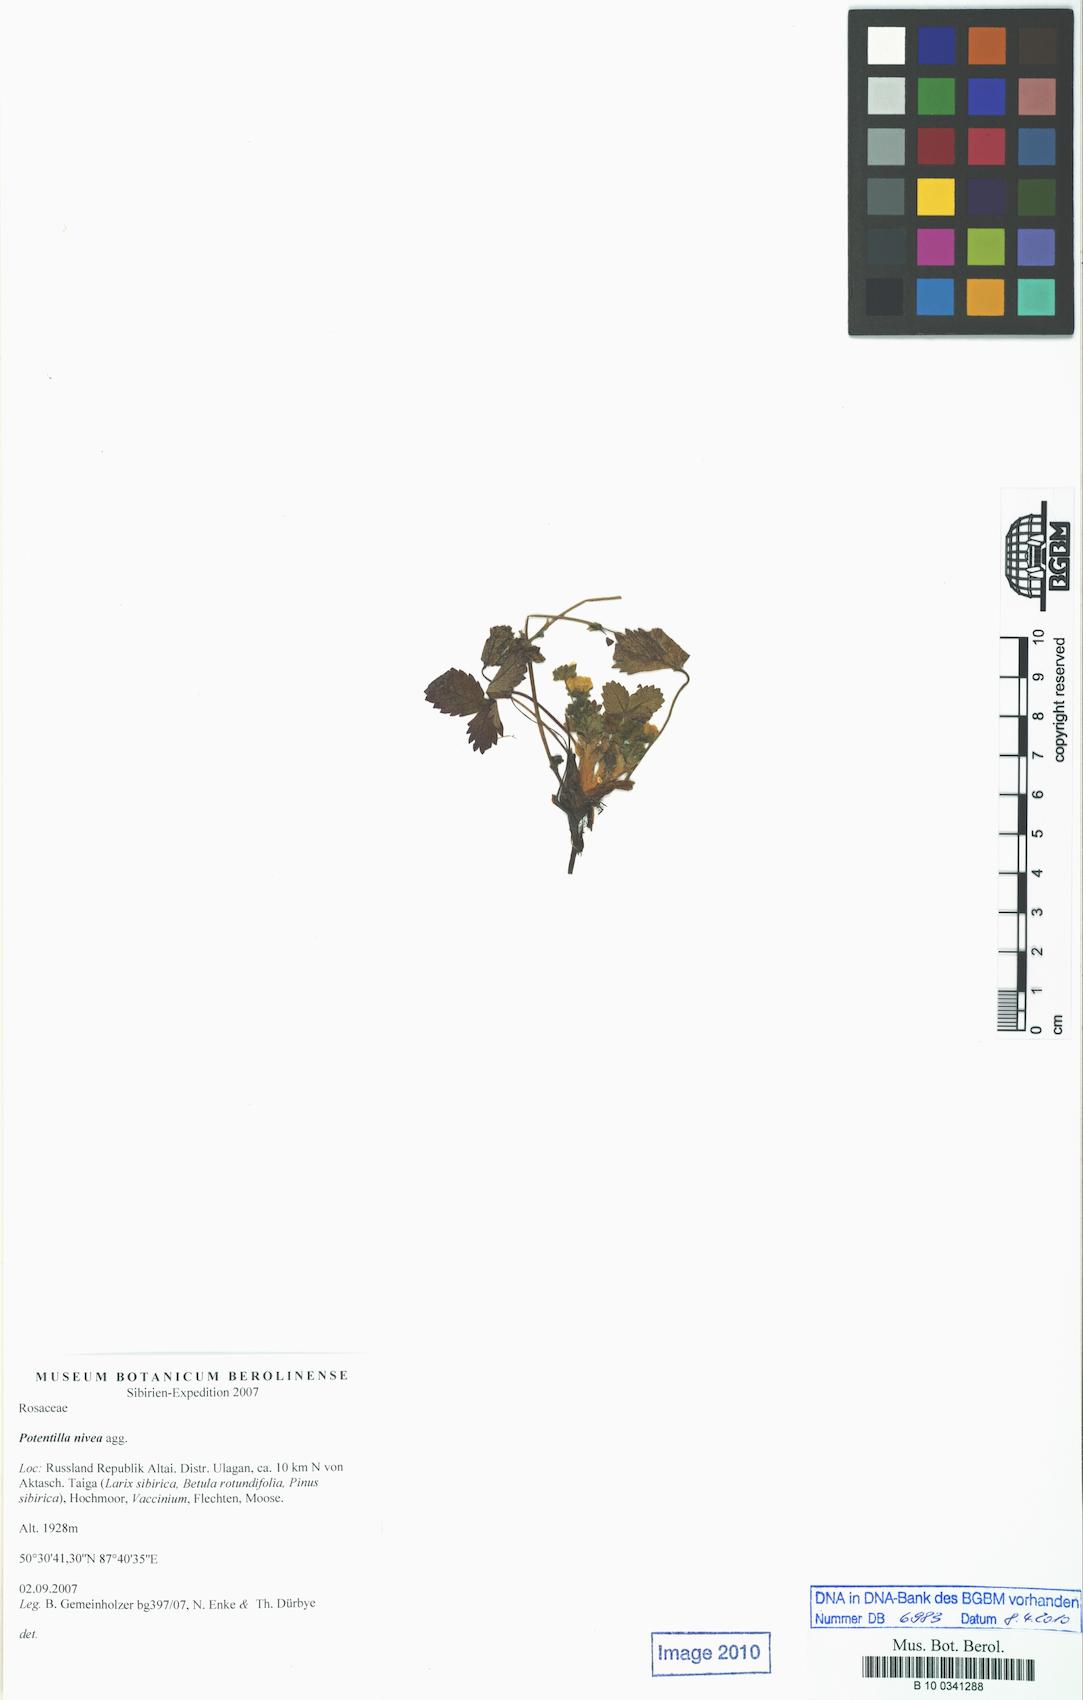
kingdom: Plantae
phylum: Tracheophyta
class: Magnoliopsida
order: Rosales
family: Rosaceae
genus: Potentilla
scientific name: Potentilla
